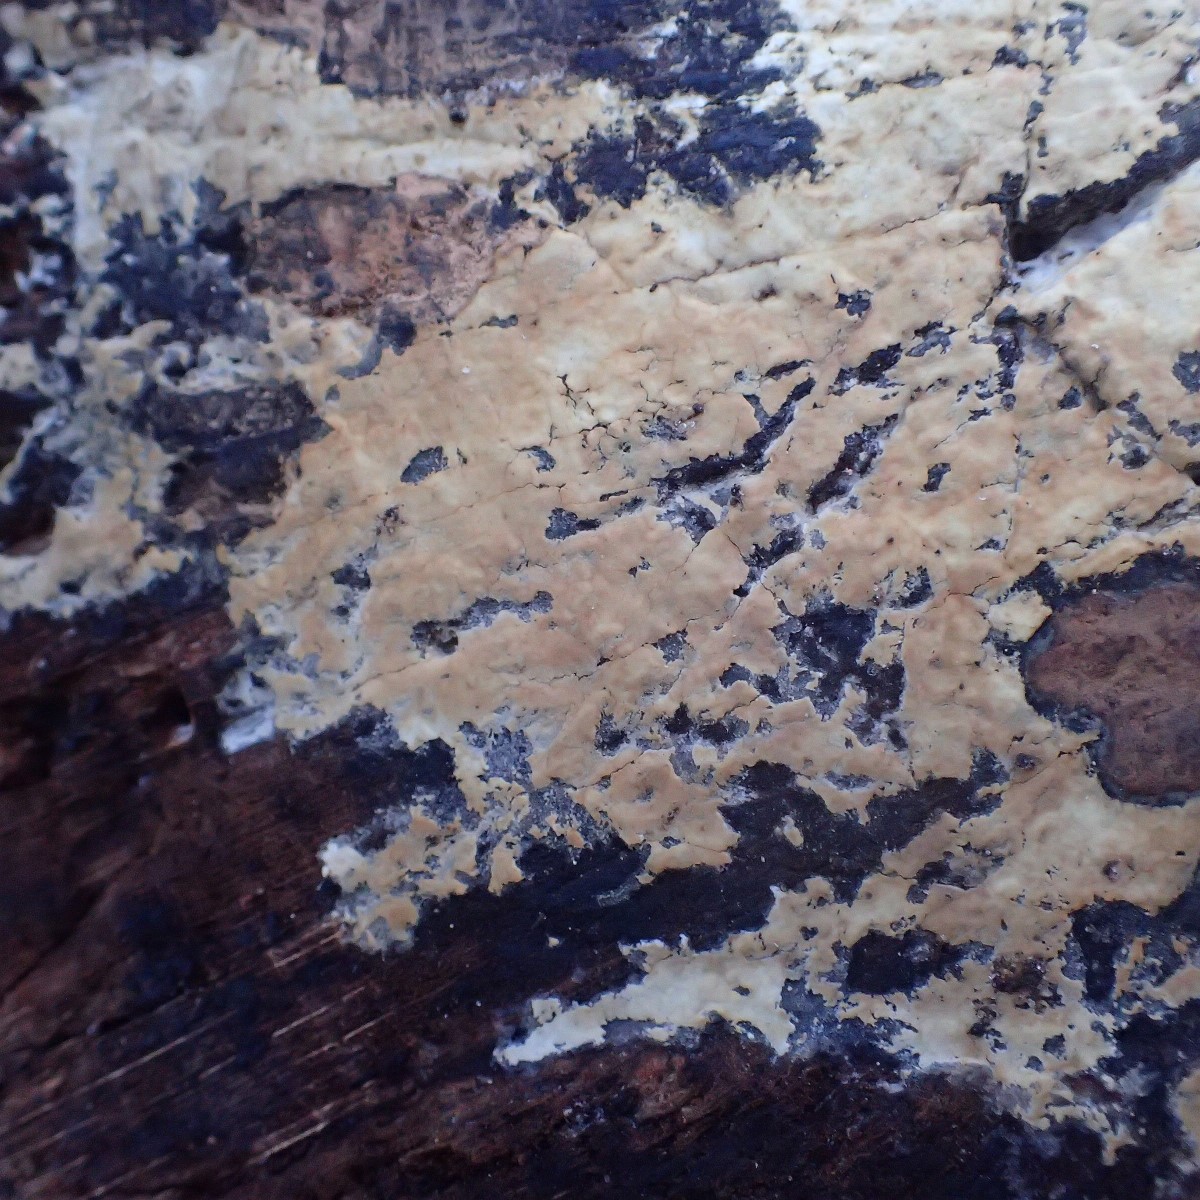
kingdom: Fungi
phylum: Basidiomycota
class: Agaricomycetes
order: Corticiales
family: Corticiaceae
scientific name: Corticiaceae
